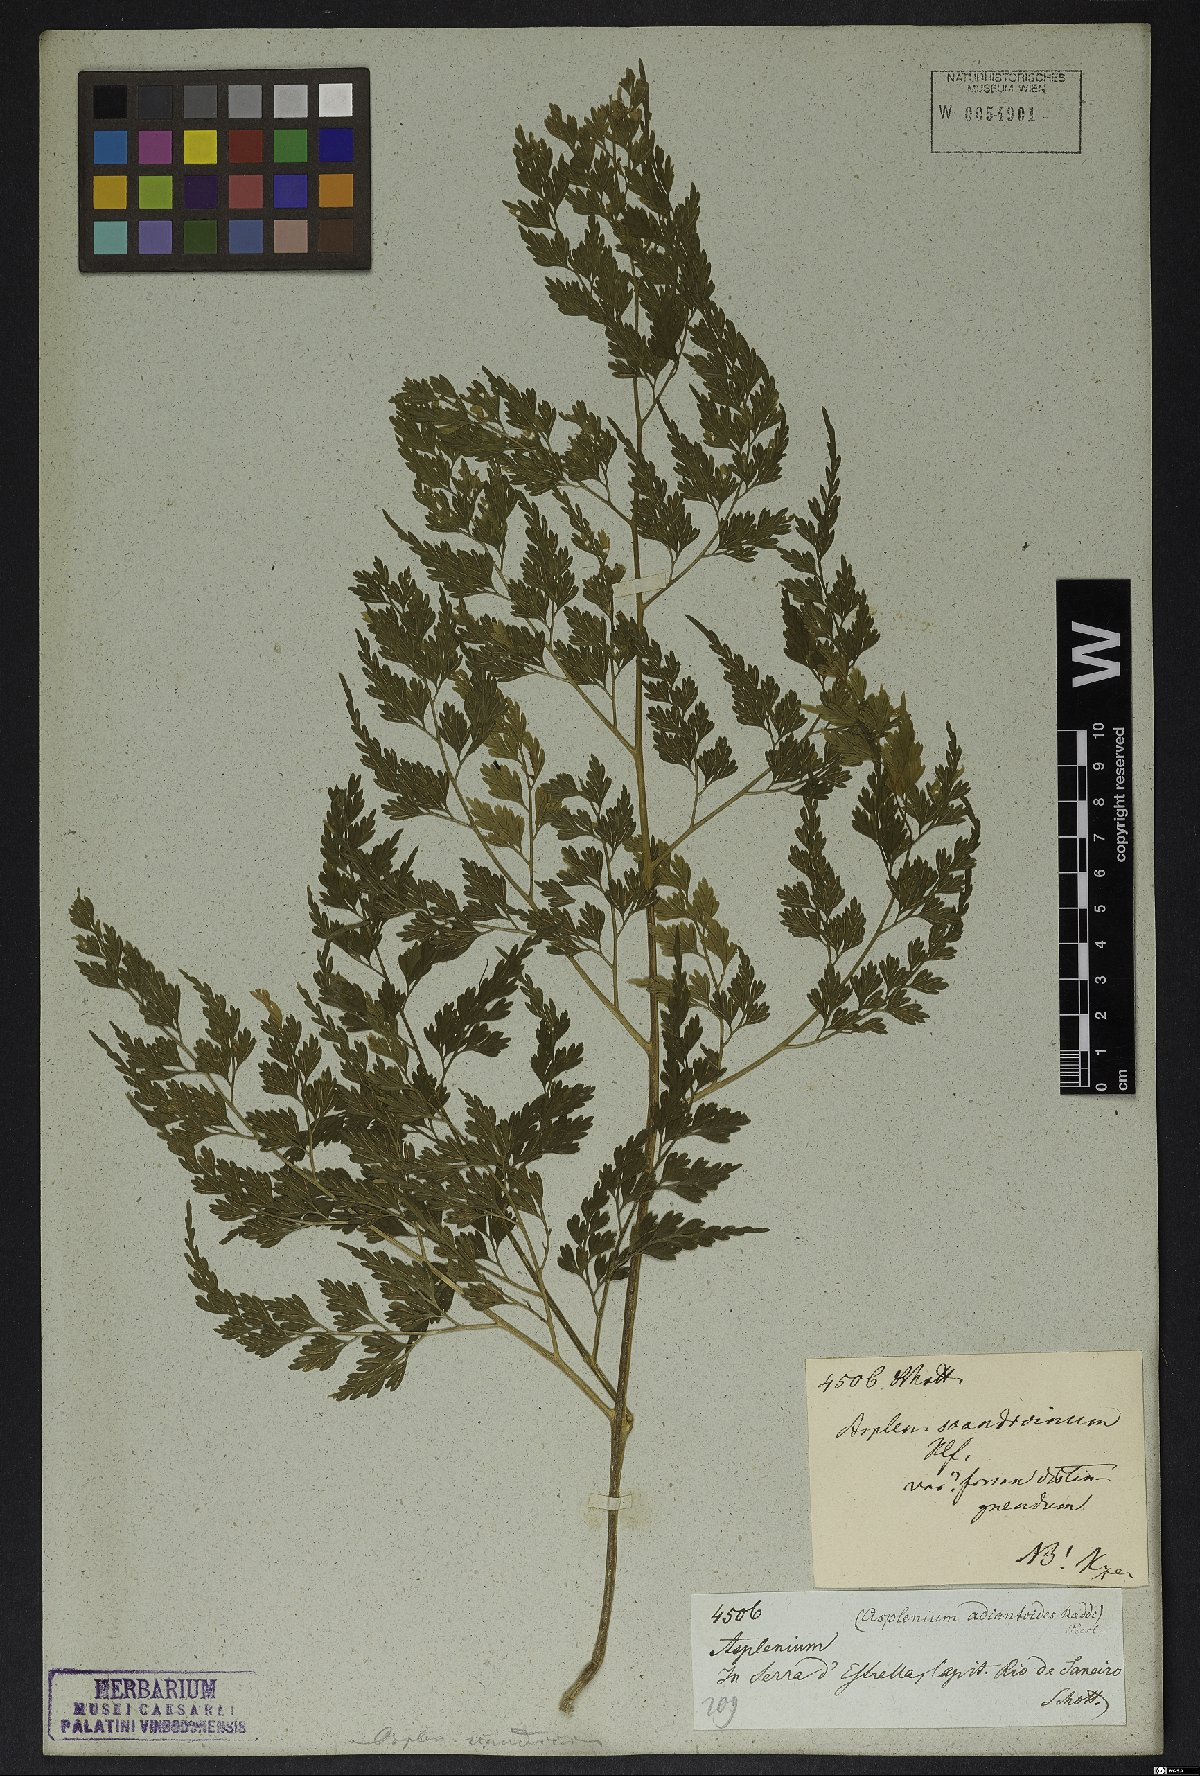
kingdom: Plantae
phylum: Tracheophyta
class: Polypodiopsida
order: Polypodiales
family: Aspleniaceae
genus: Asplenium
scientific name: Asplenium scandicinum
